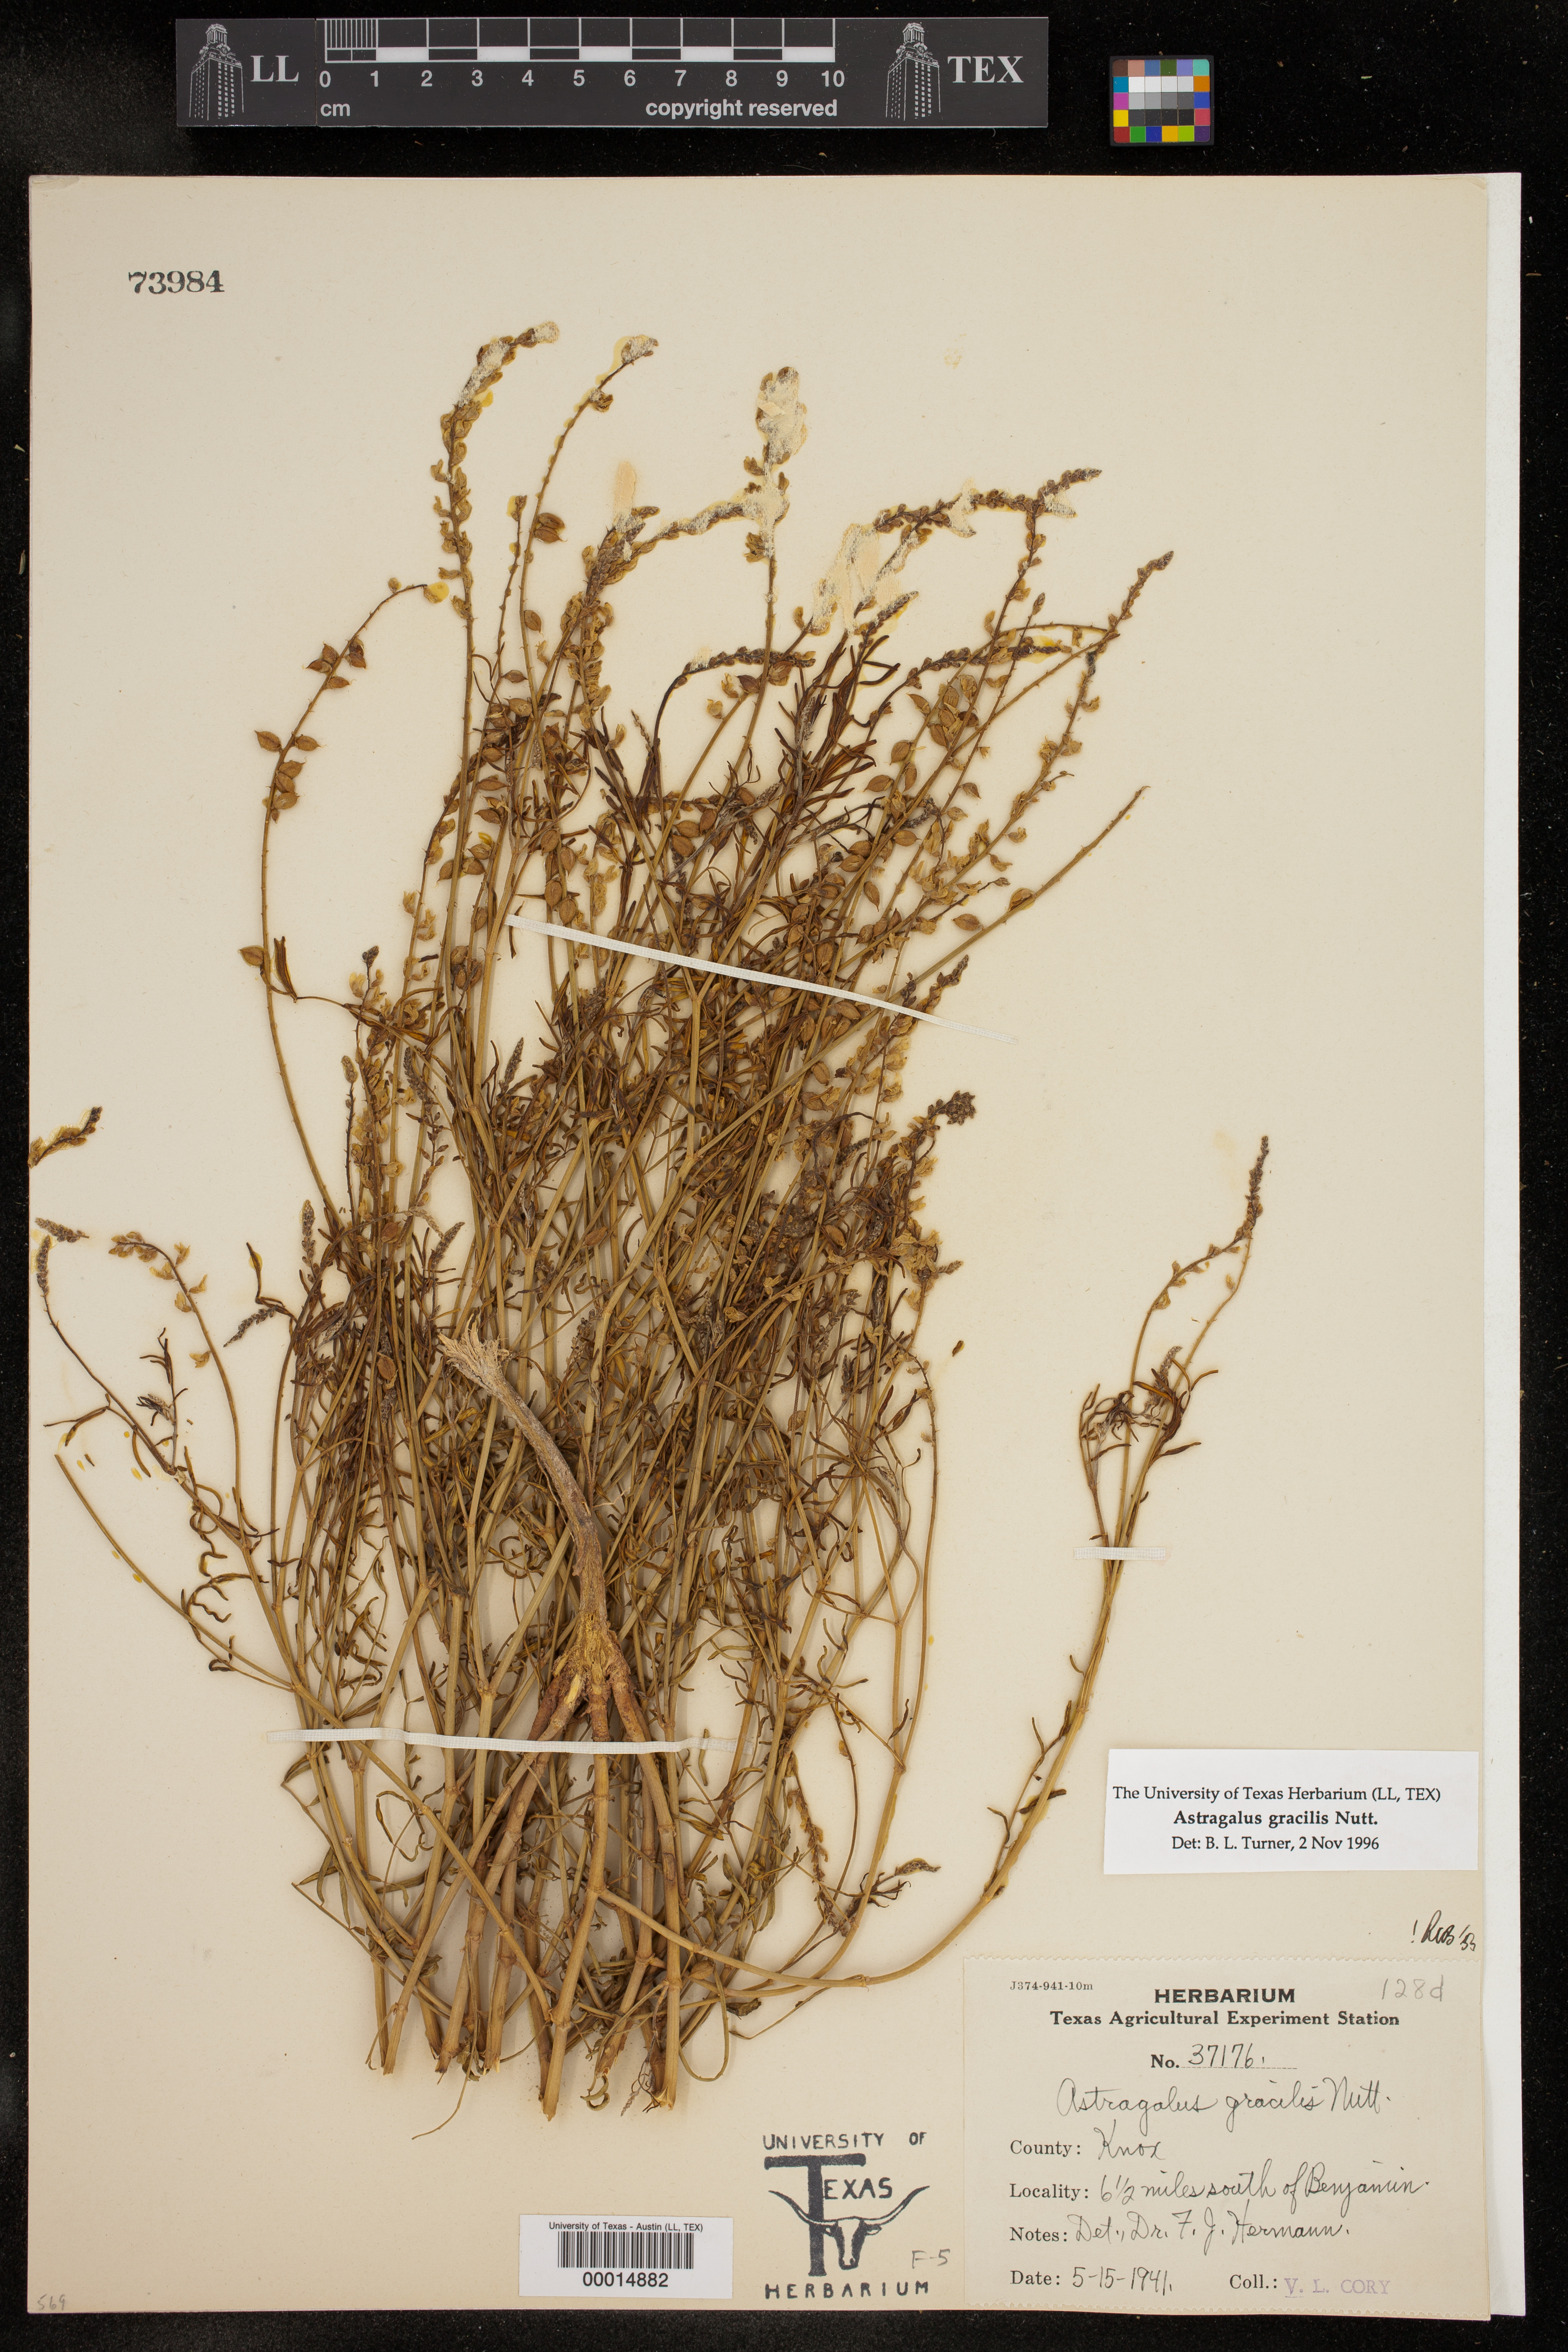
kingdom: Plantae
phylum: Tracheophyta
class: Magnoliopsida
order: Fabales
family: Fabaceae
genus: Astragalus
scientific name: Astragalus gracilis
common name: Slender milk-vetch
